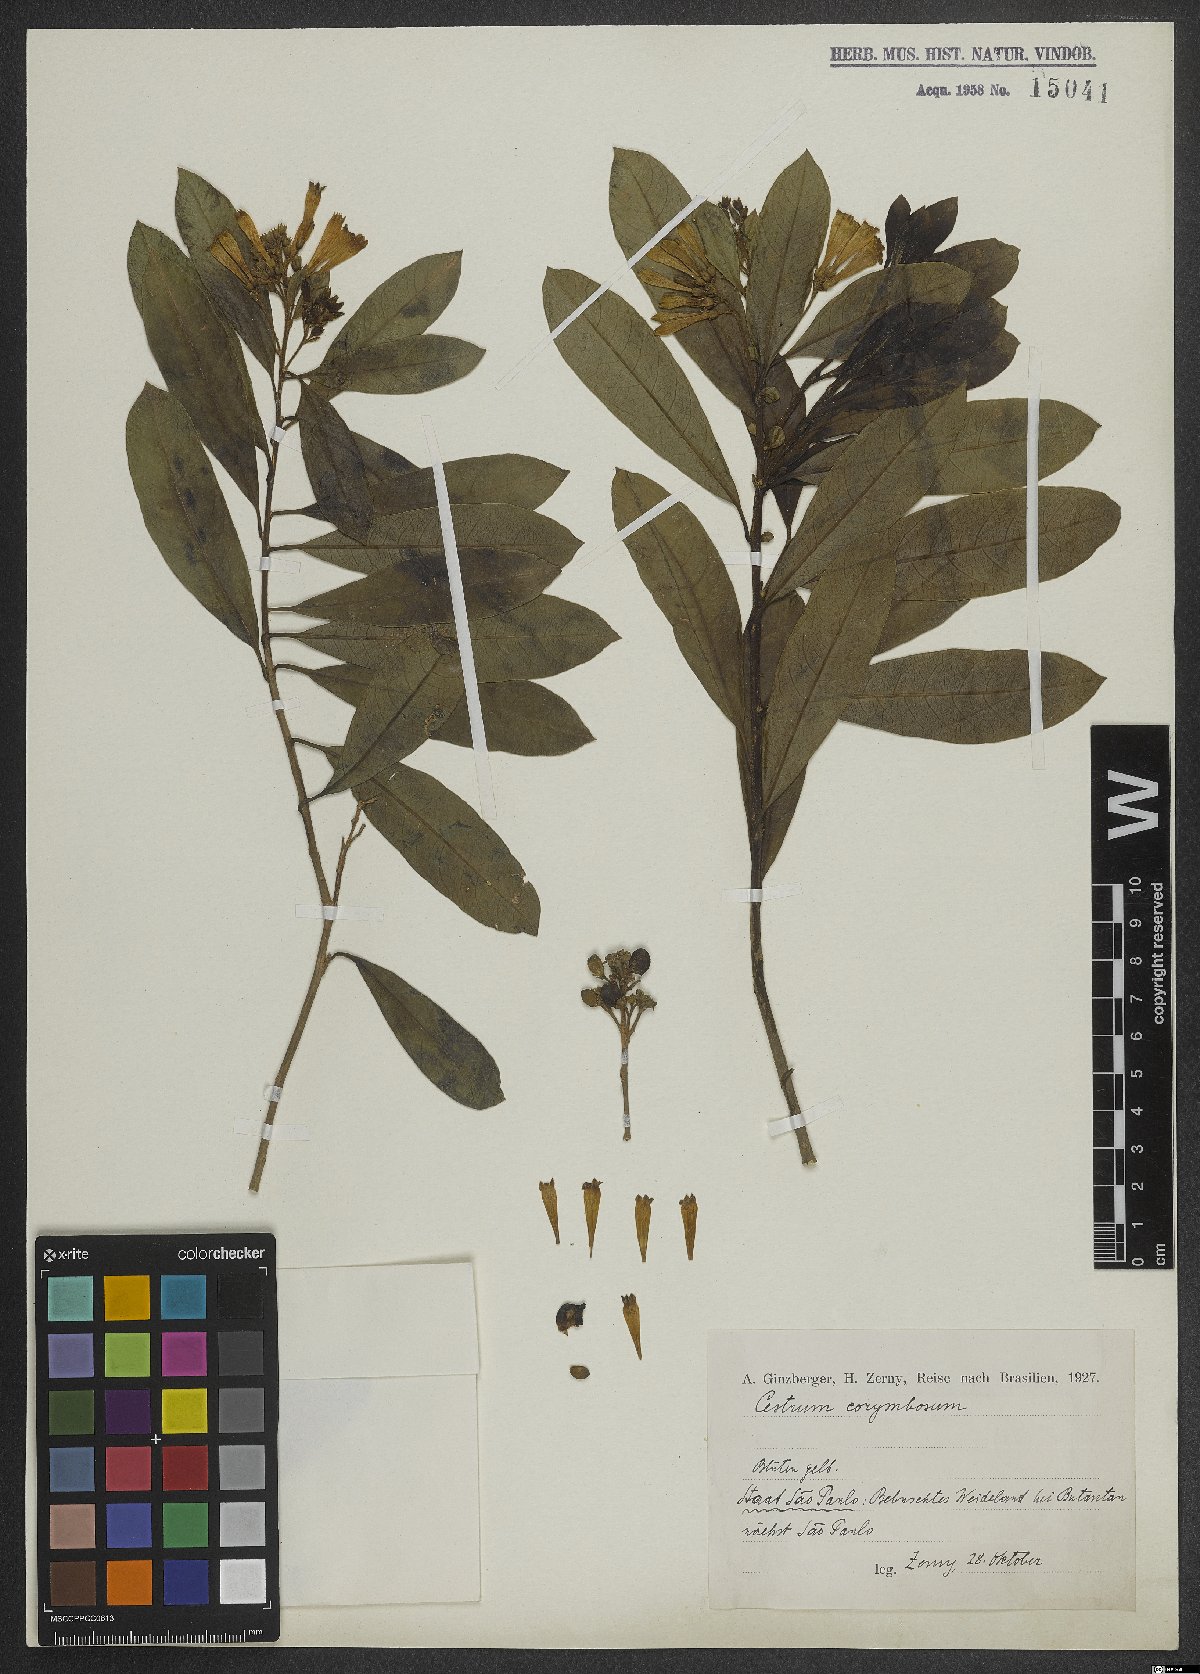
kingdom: Plantae
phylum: Tracheophyta
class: Magnoliopsida
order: Solanales
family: Solanaceae
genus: Cestrum
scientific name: Cestrum corymbosum
